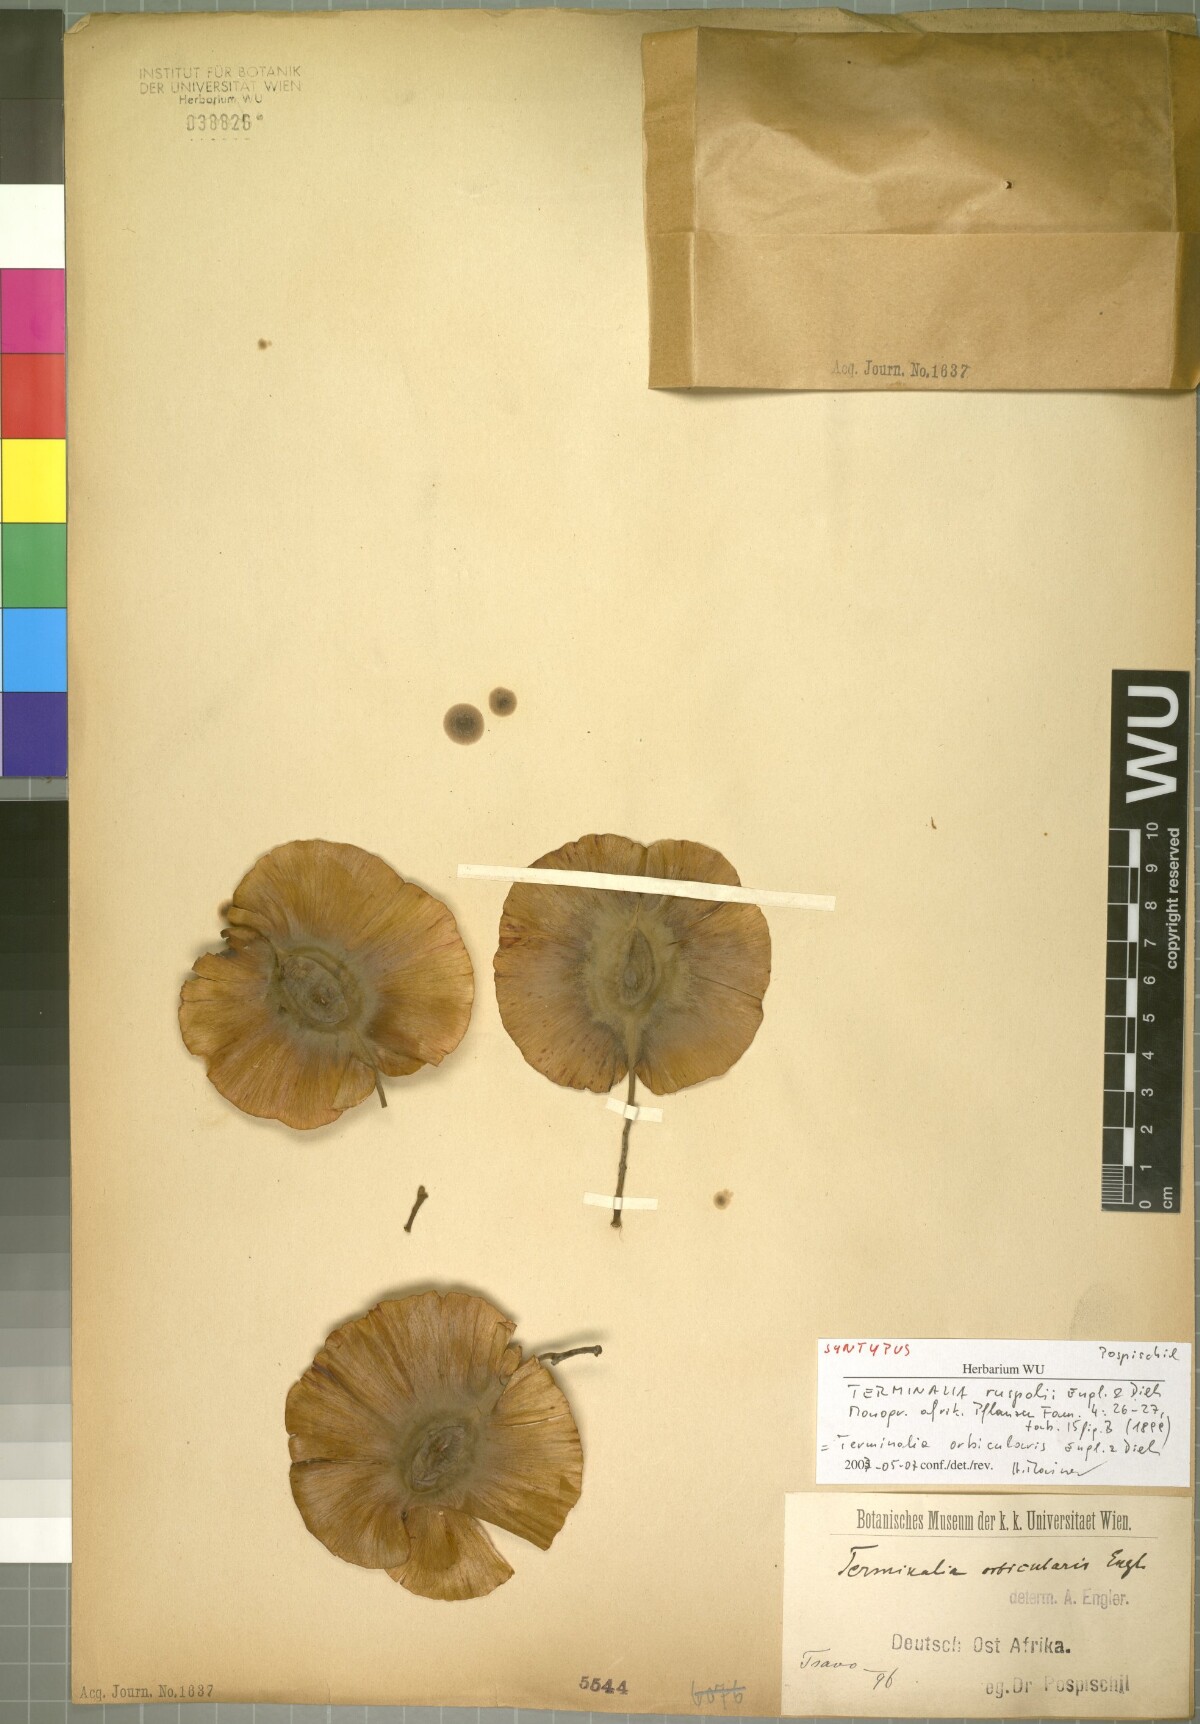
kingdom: Plantae
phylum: Tracheophyta
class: Magnoliopsida
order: Myrtales
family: Combretaceae
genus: Terminalia
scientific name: Terminalia orbicularis
